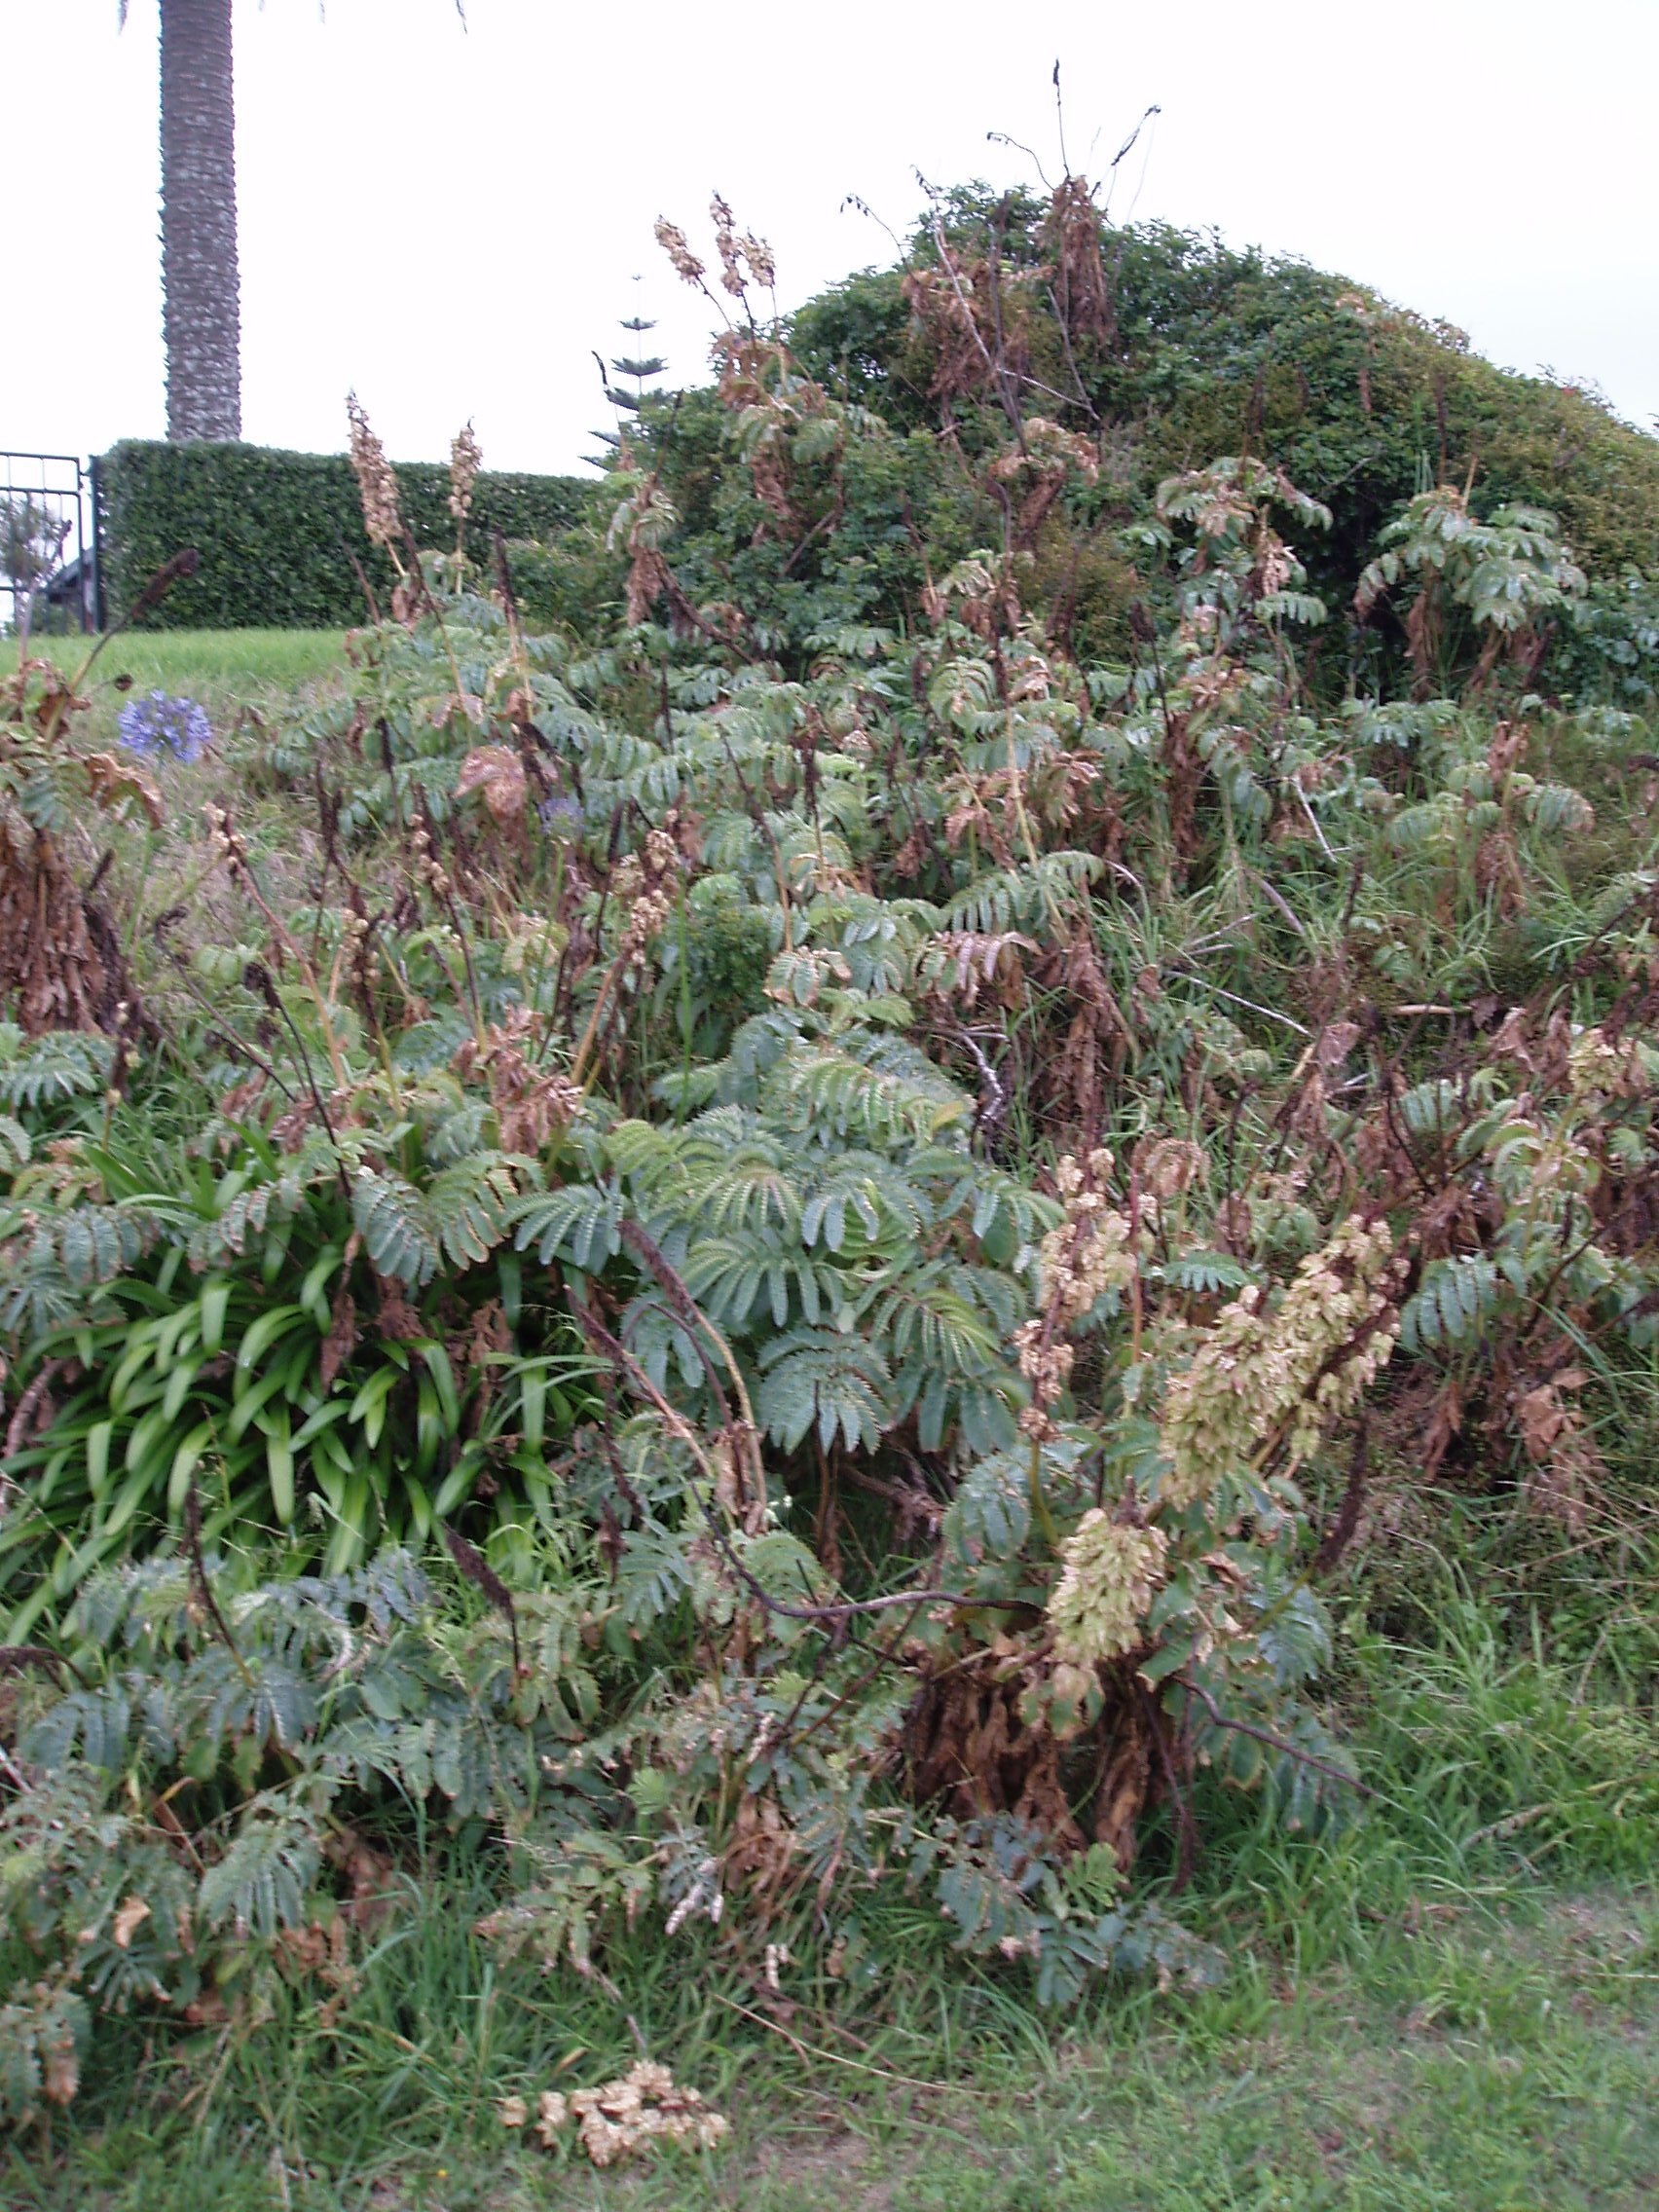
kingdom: Plantae
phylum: Tracheophyta
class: Magnoliopsida
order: Geraniales
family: Melianthaceae
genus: Melianthus
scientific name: Melianthus major
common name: Honey-flower
